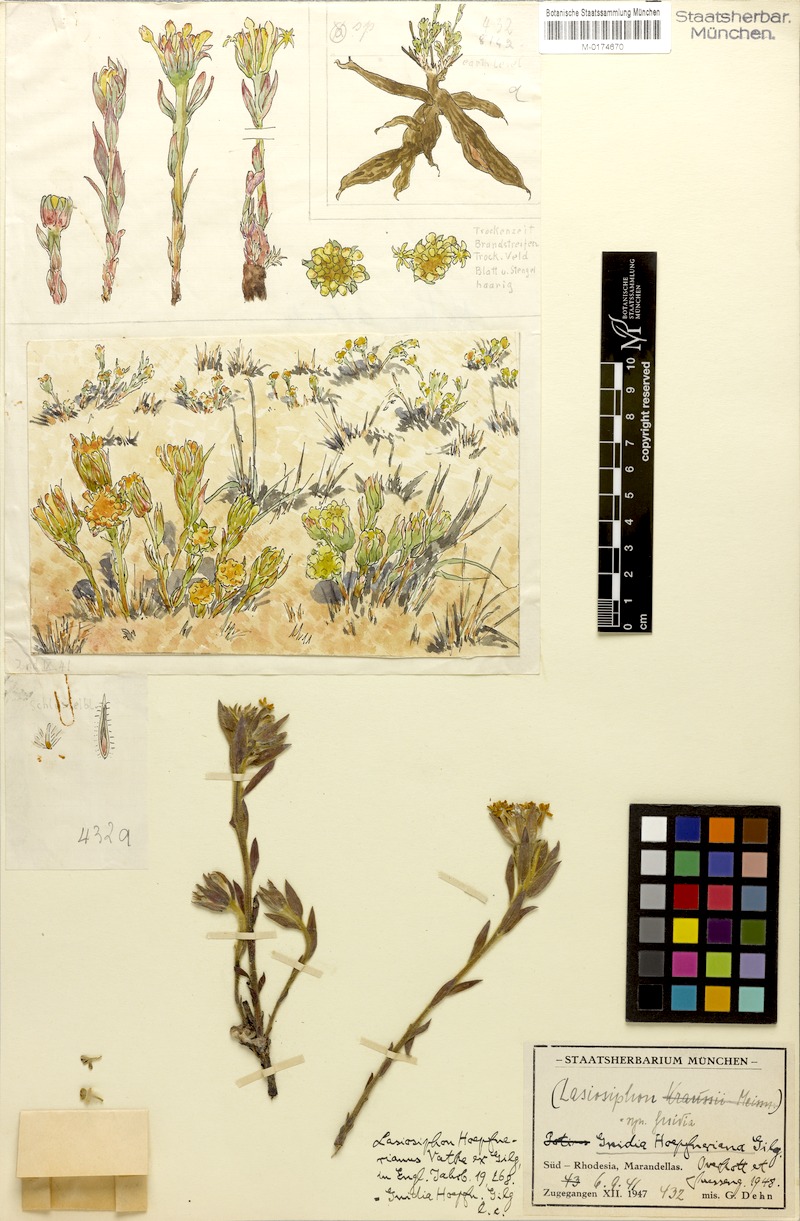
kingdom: Plantae
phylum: Tracheophyta
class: Magnoliopsida
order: Malvales
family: Thymelaeaceae
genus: Gnidia
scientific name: Gnidia kraussiana
